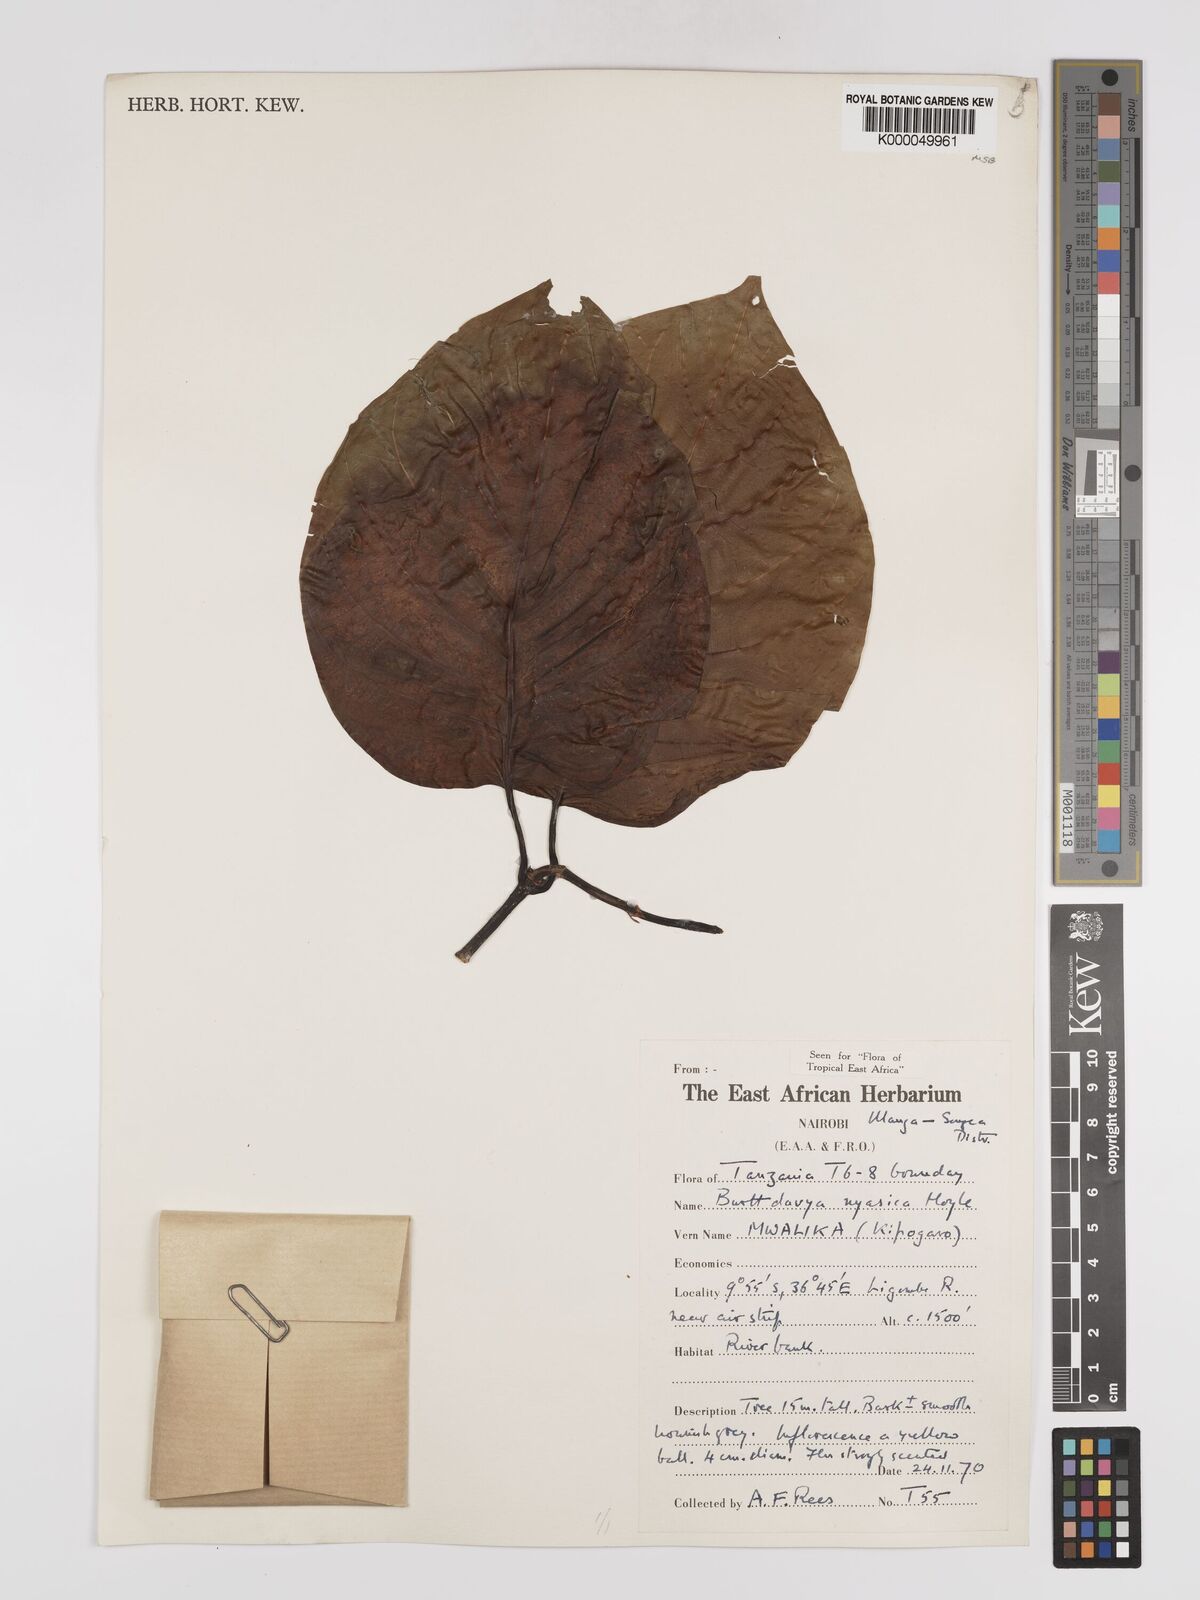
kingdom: Plantae
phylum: Tracheophyta
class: Magnoliopsida
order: Gentianales
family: Rubiaceae
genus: Nauclea
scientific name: Nauclea
